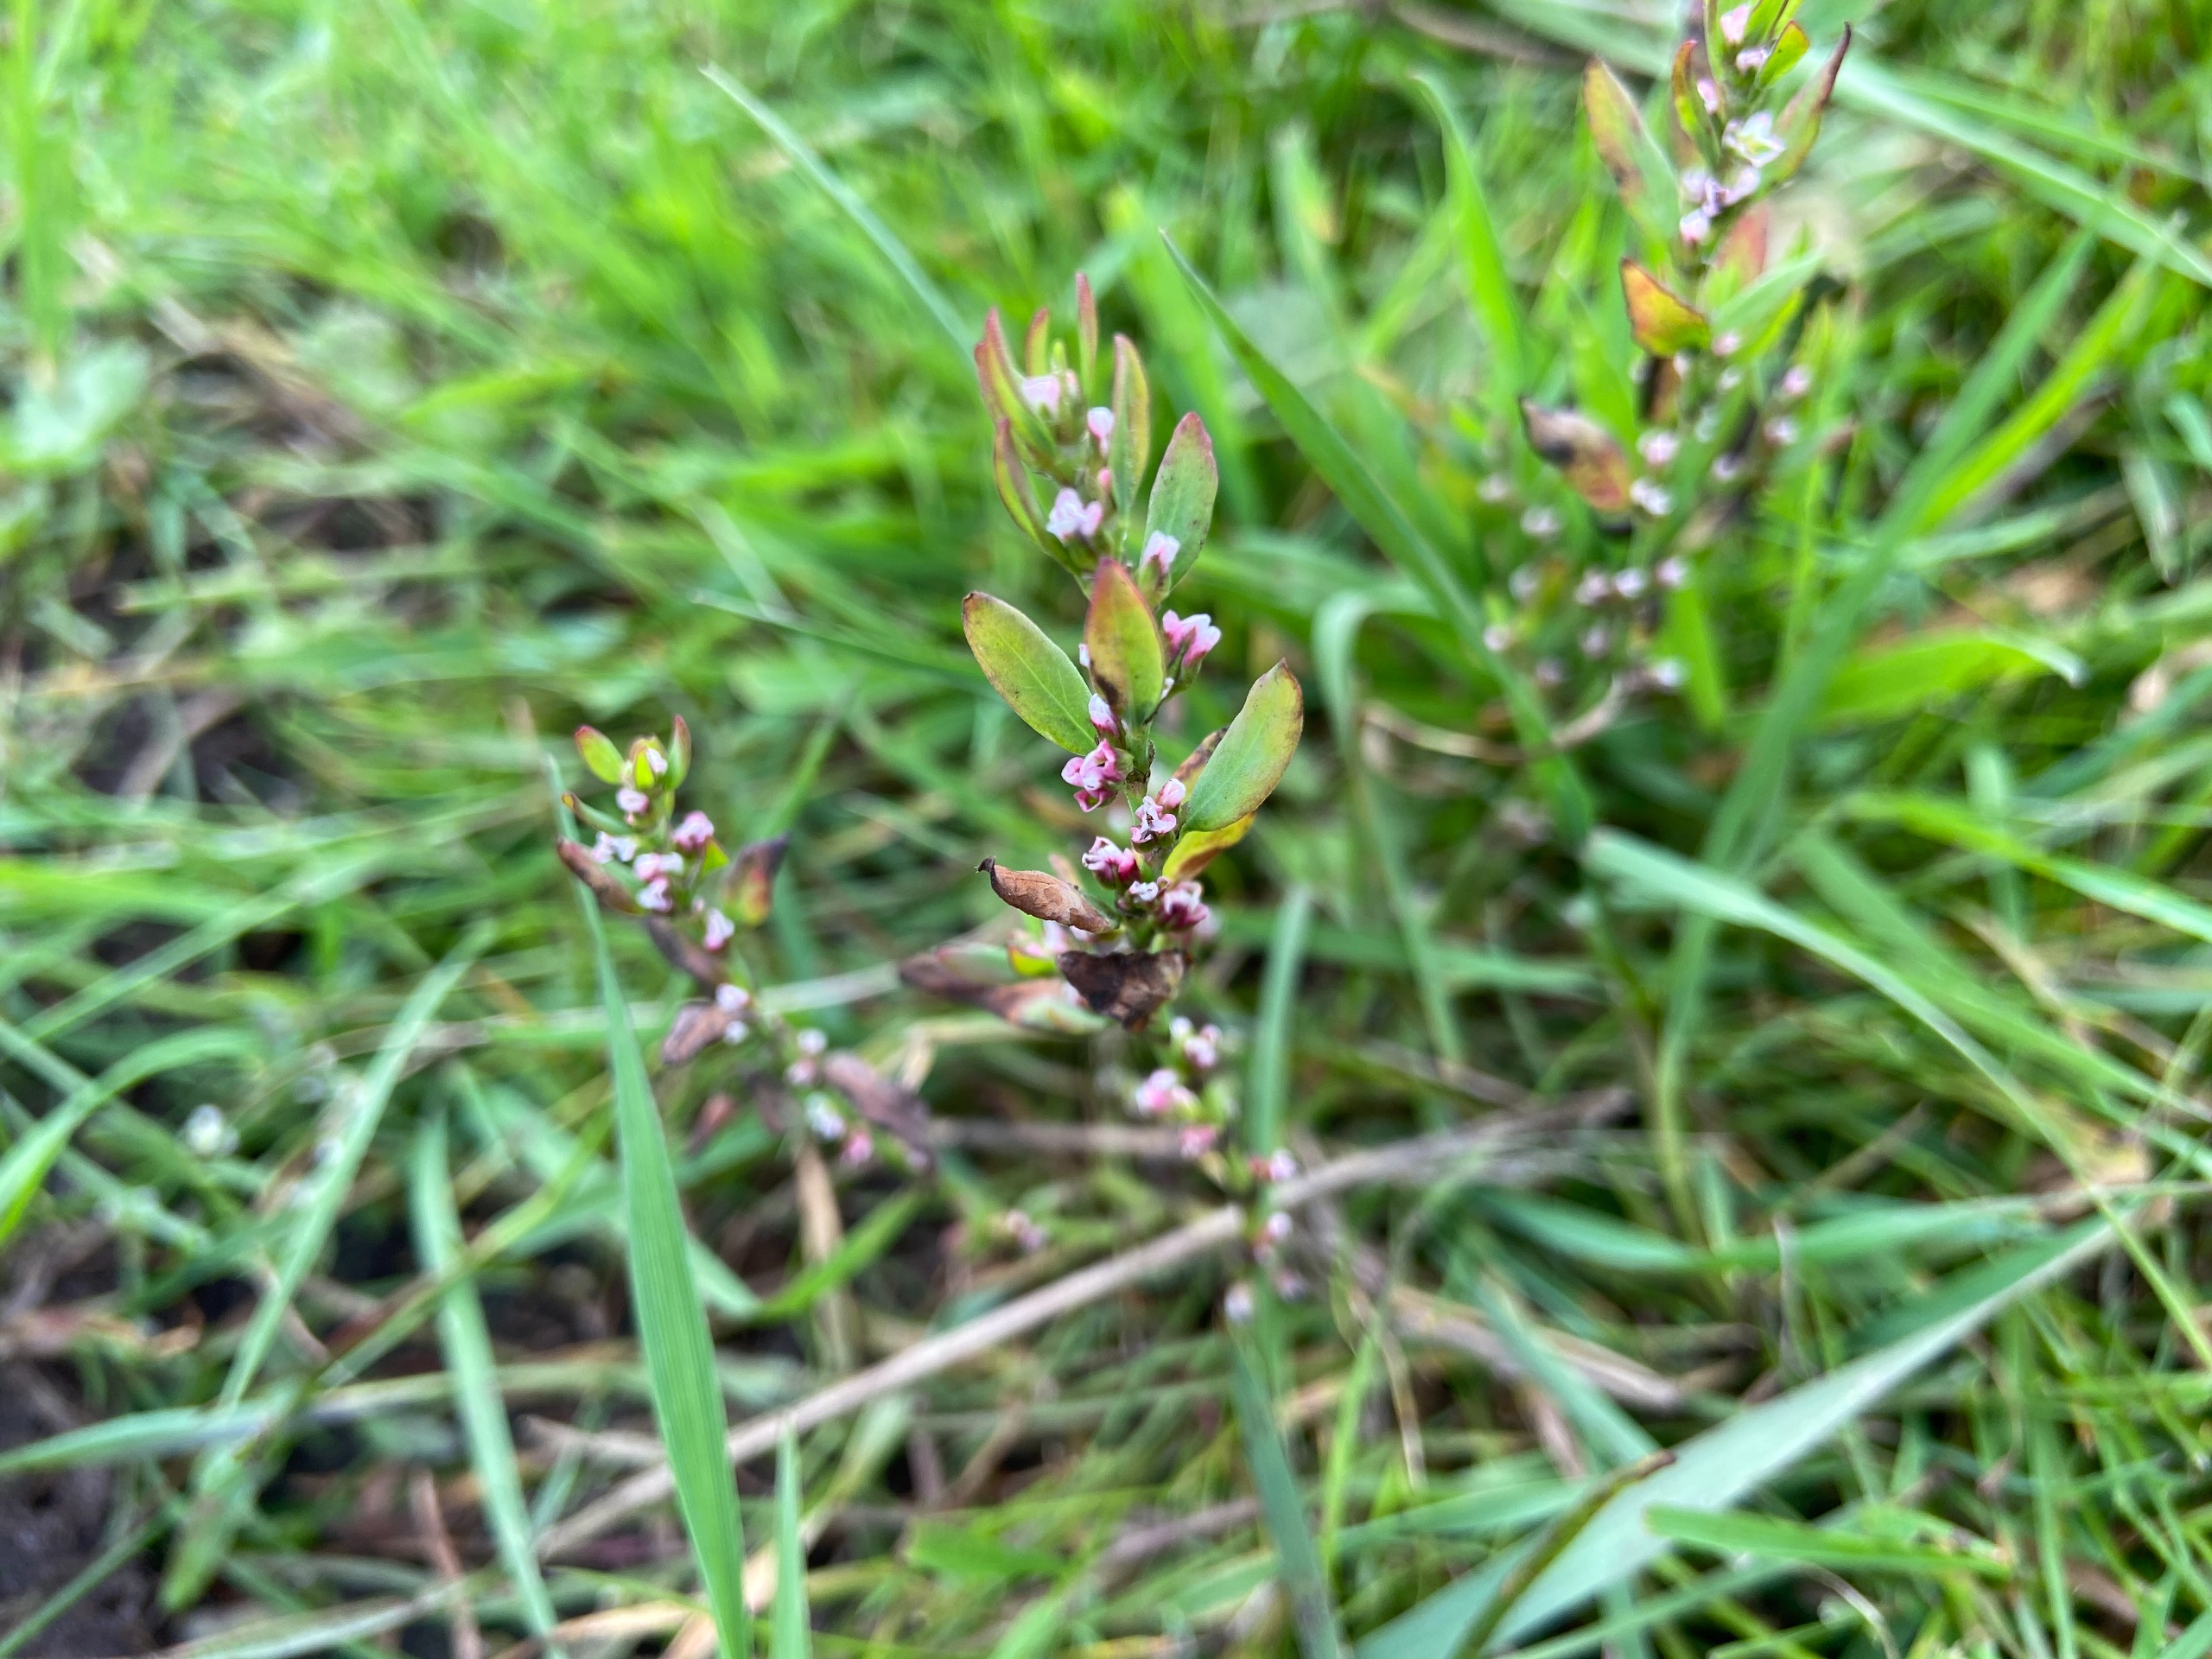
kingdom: Plantae
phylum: Tracheophyta
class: Magnoliopsida
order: Caryophyllales
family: Polygonaceae
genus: Polygonum
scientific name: Polygonum aviculare
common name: Vej-pileurt
